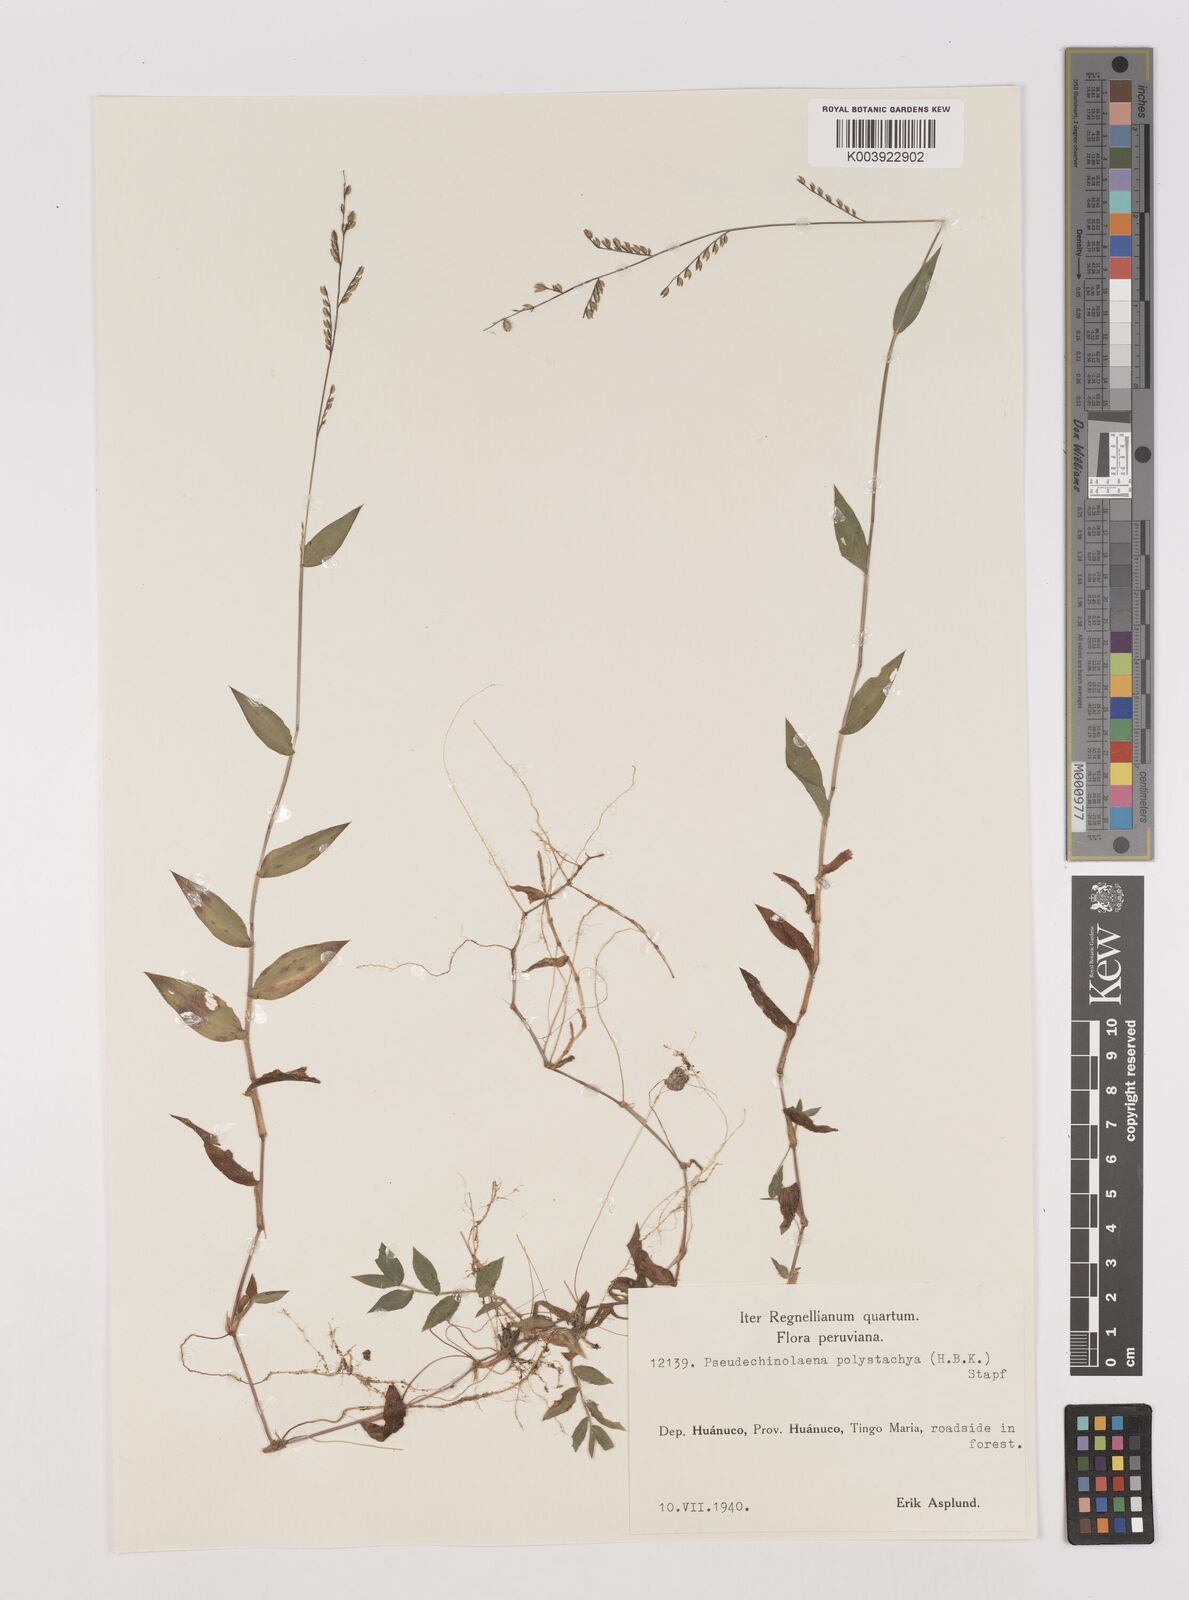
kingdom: Plantae
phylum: Tracheophyta
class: Liliopsida
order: Poales
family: Poaceae
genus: Pseudechinolaena
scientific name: Pseudechinolaena polystachya
